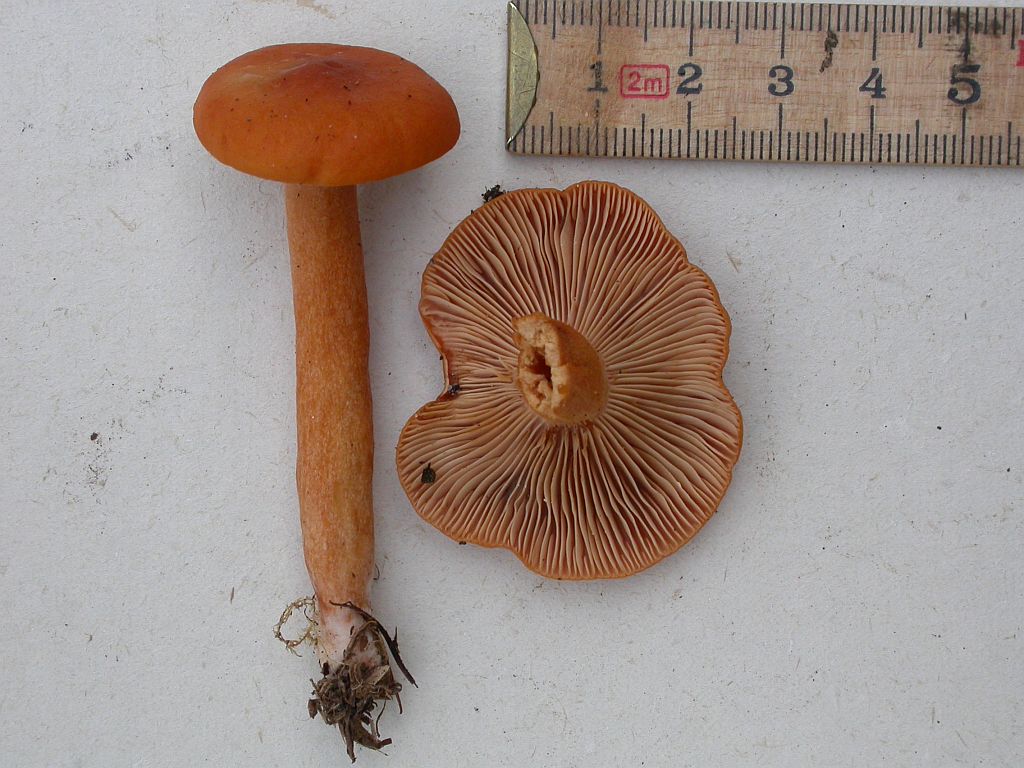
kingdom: Fungi
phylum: Basidiomycota
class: Agaricomycetes
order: Russulales
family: Russulaceae
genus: Lactarius
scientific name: Lactarius aurantiacus
